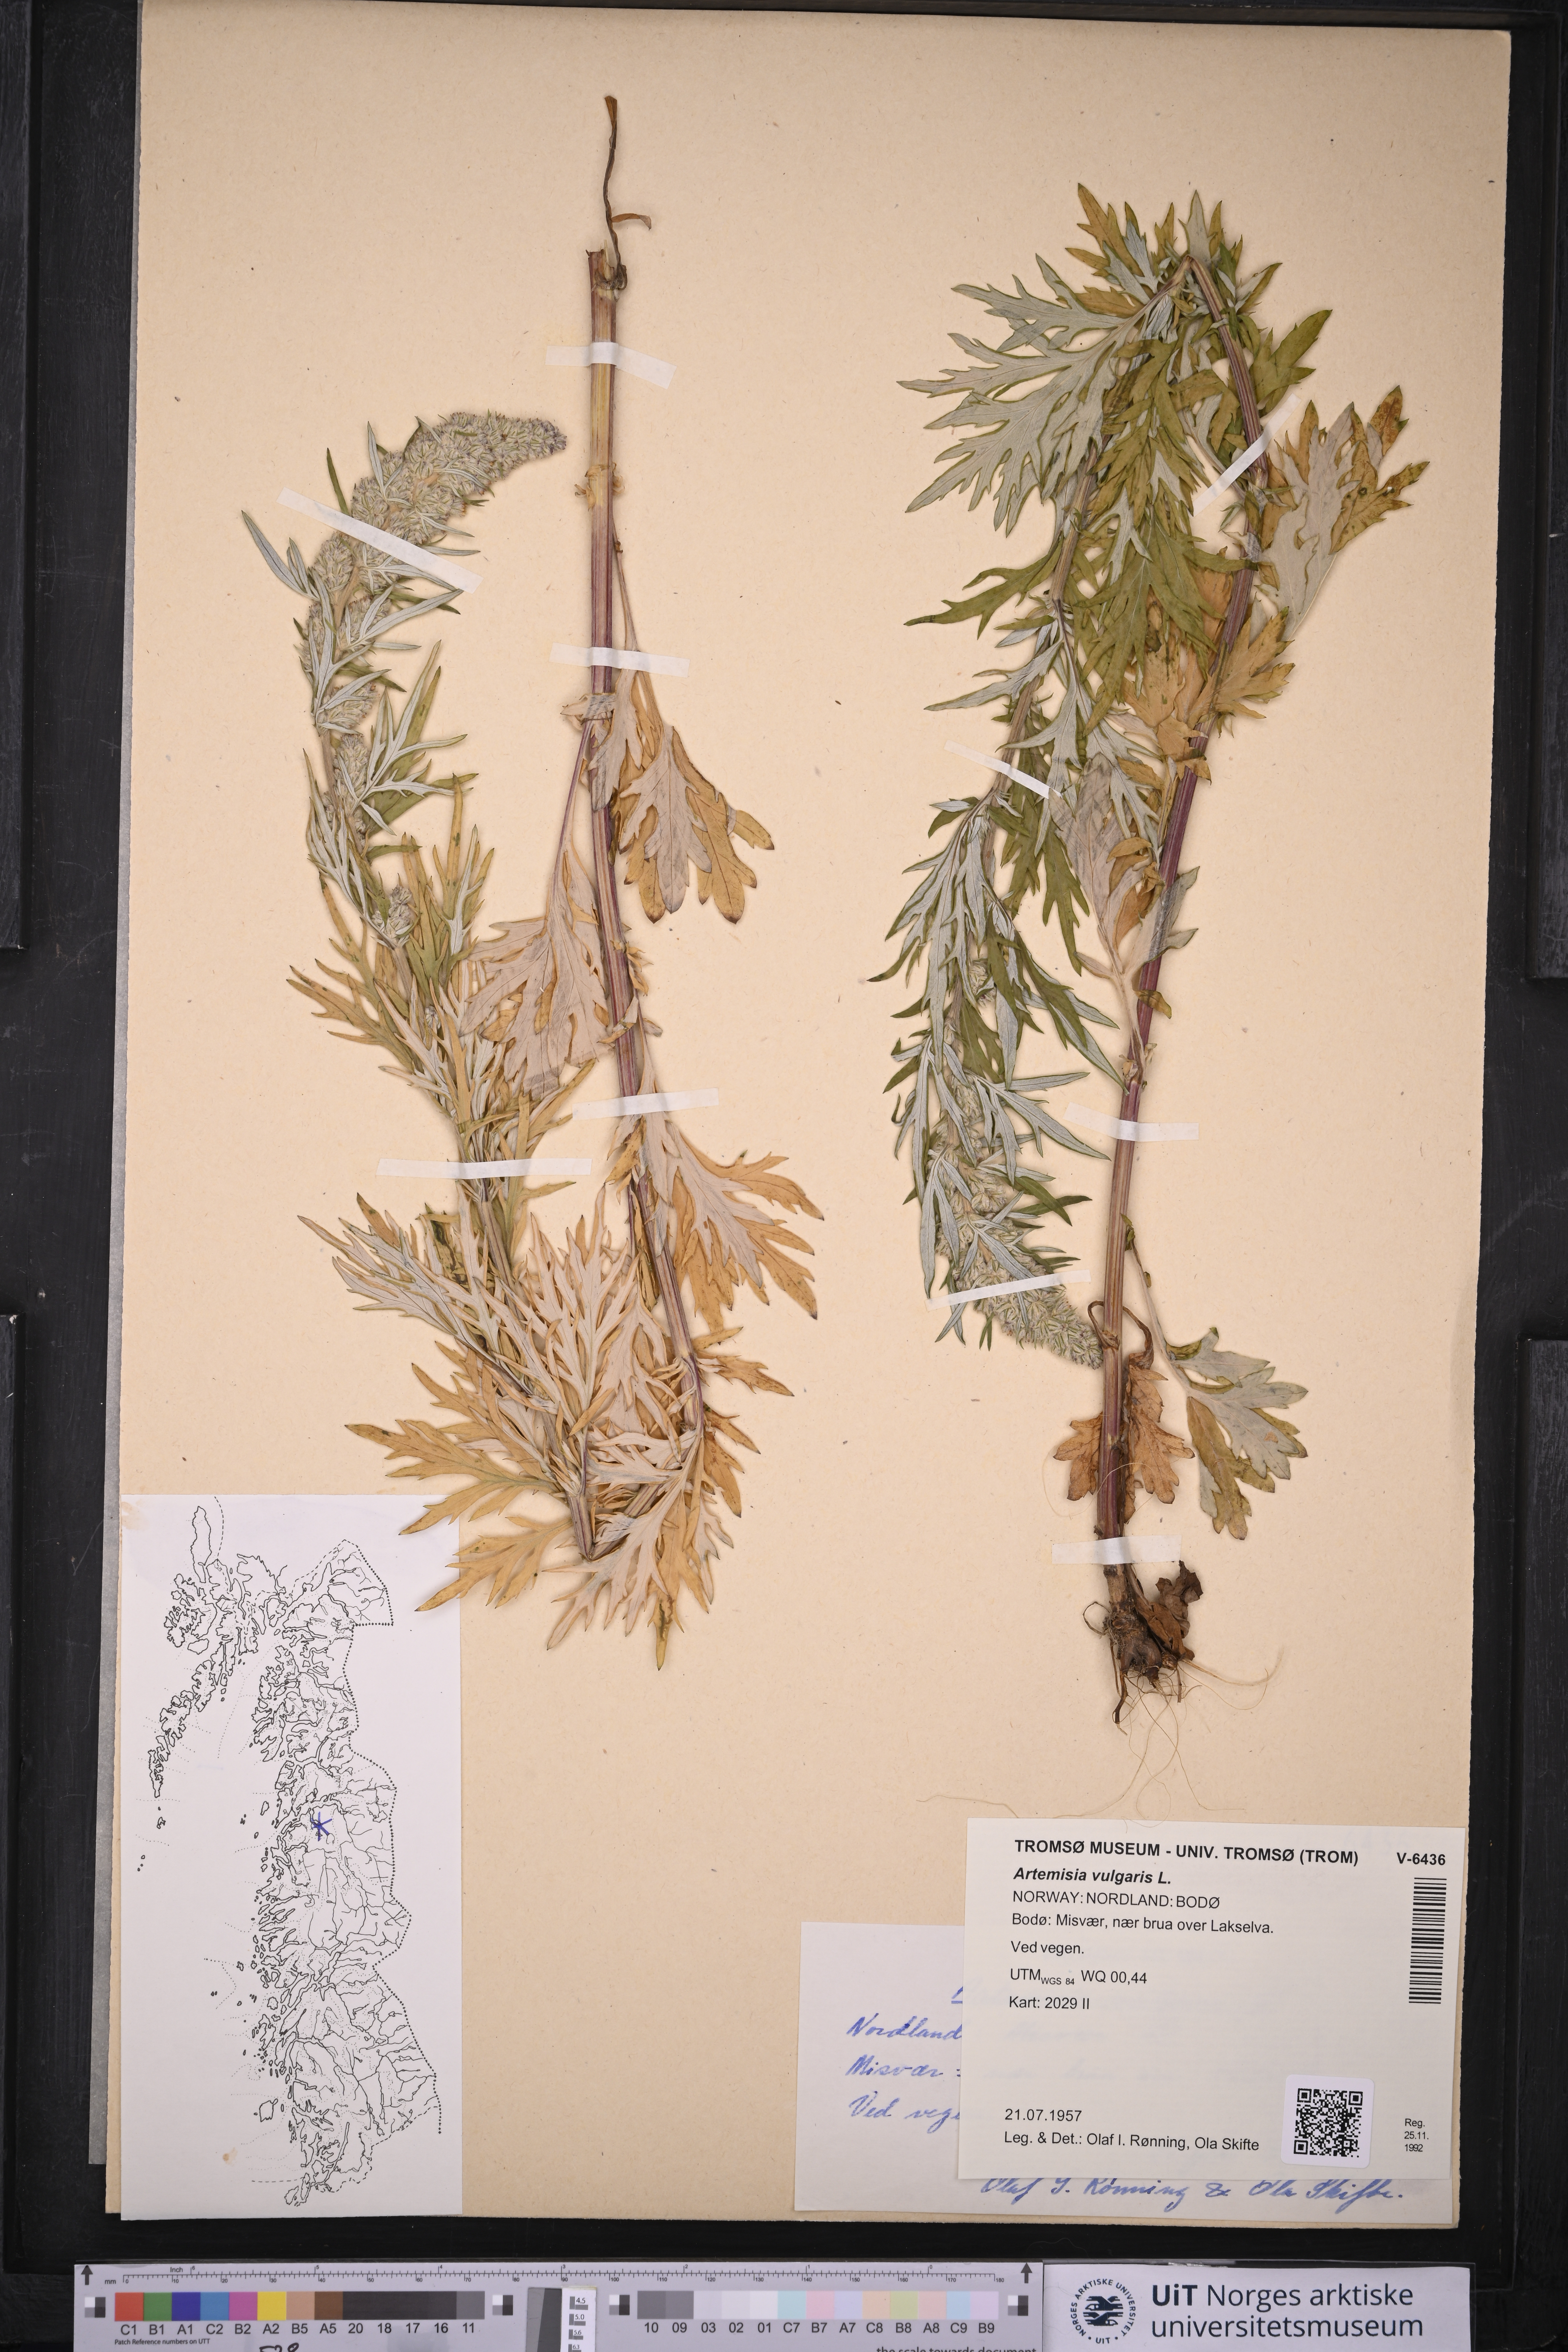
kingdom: Plantae
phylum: Tracheophyta
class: Magnoliopsida
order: Asterales
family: Asteraceae
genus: Artemisia
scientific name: Artemisia vulgaris
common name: Mugwort
